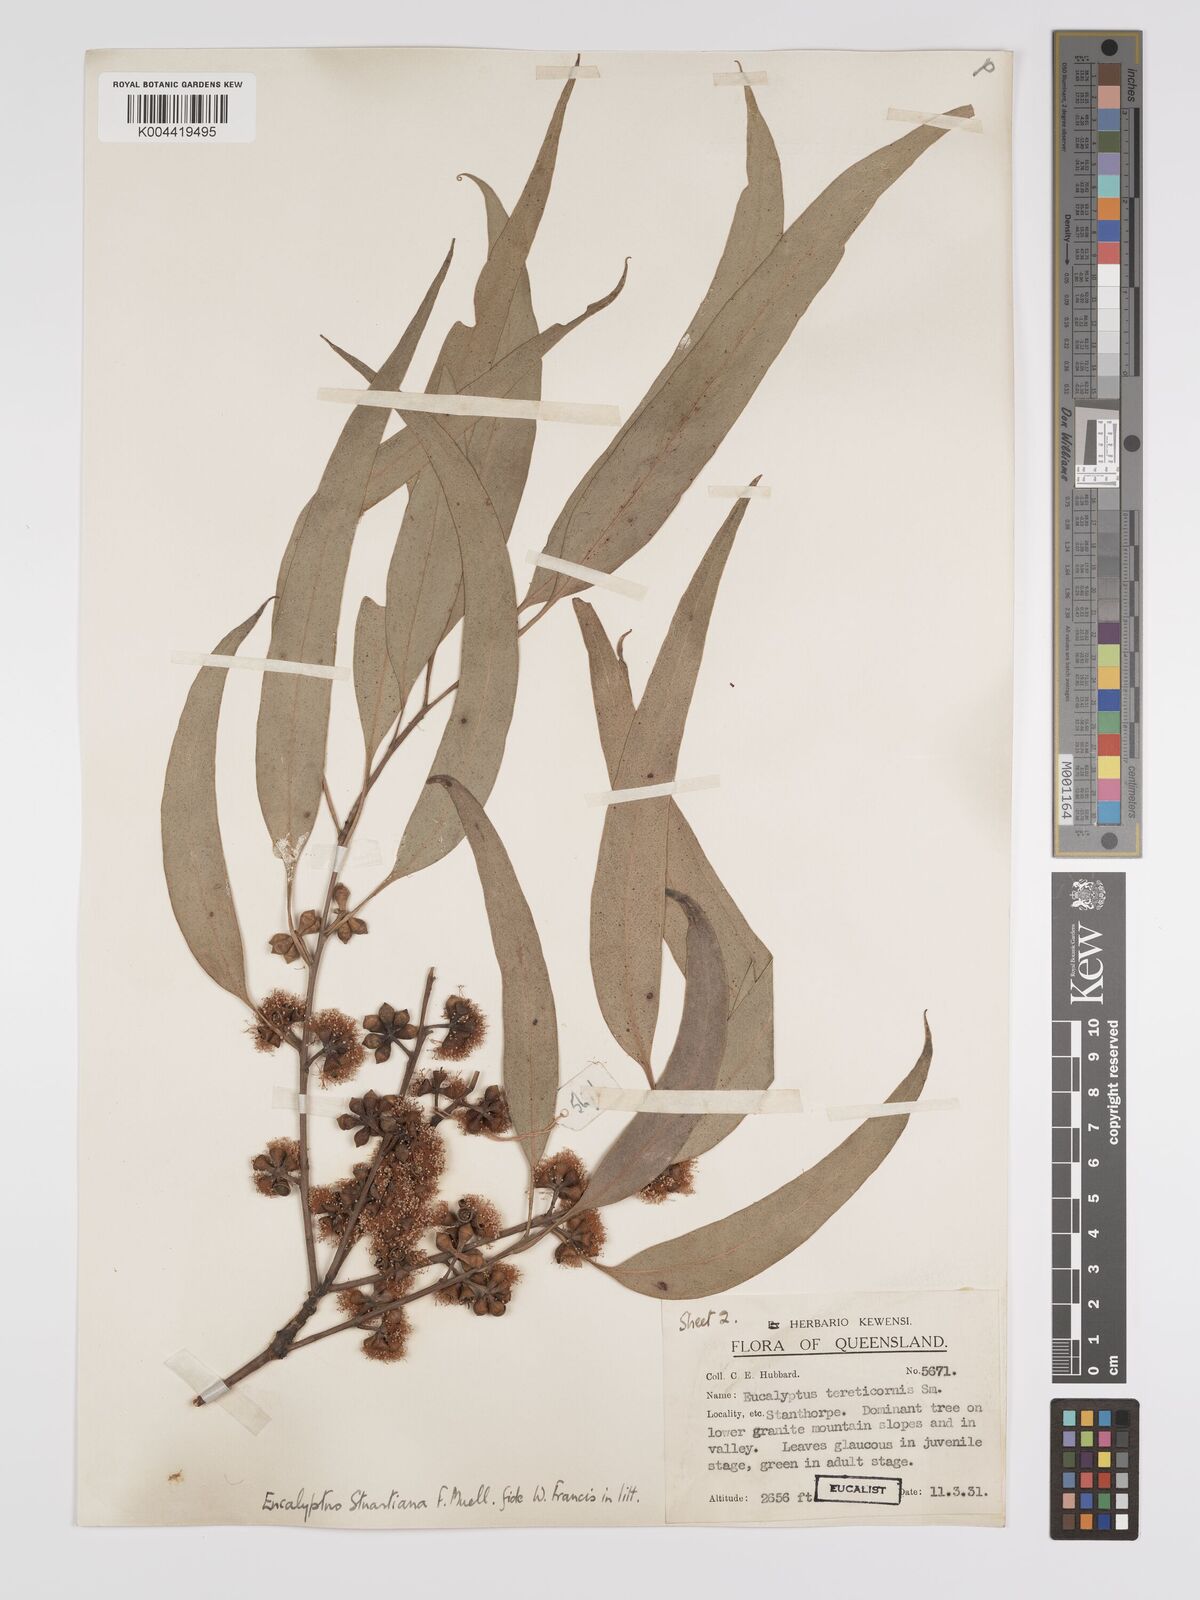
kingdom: Plantae
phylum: Tracheophyta
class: Magnoliopsida
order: Myrtales
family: Myrtaceae
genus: Eucalyptus
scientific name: Eucalyptus bridgesiana
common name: Applebox
